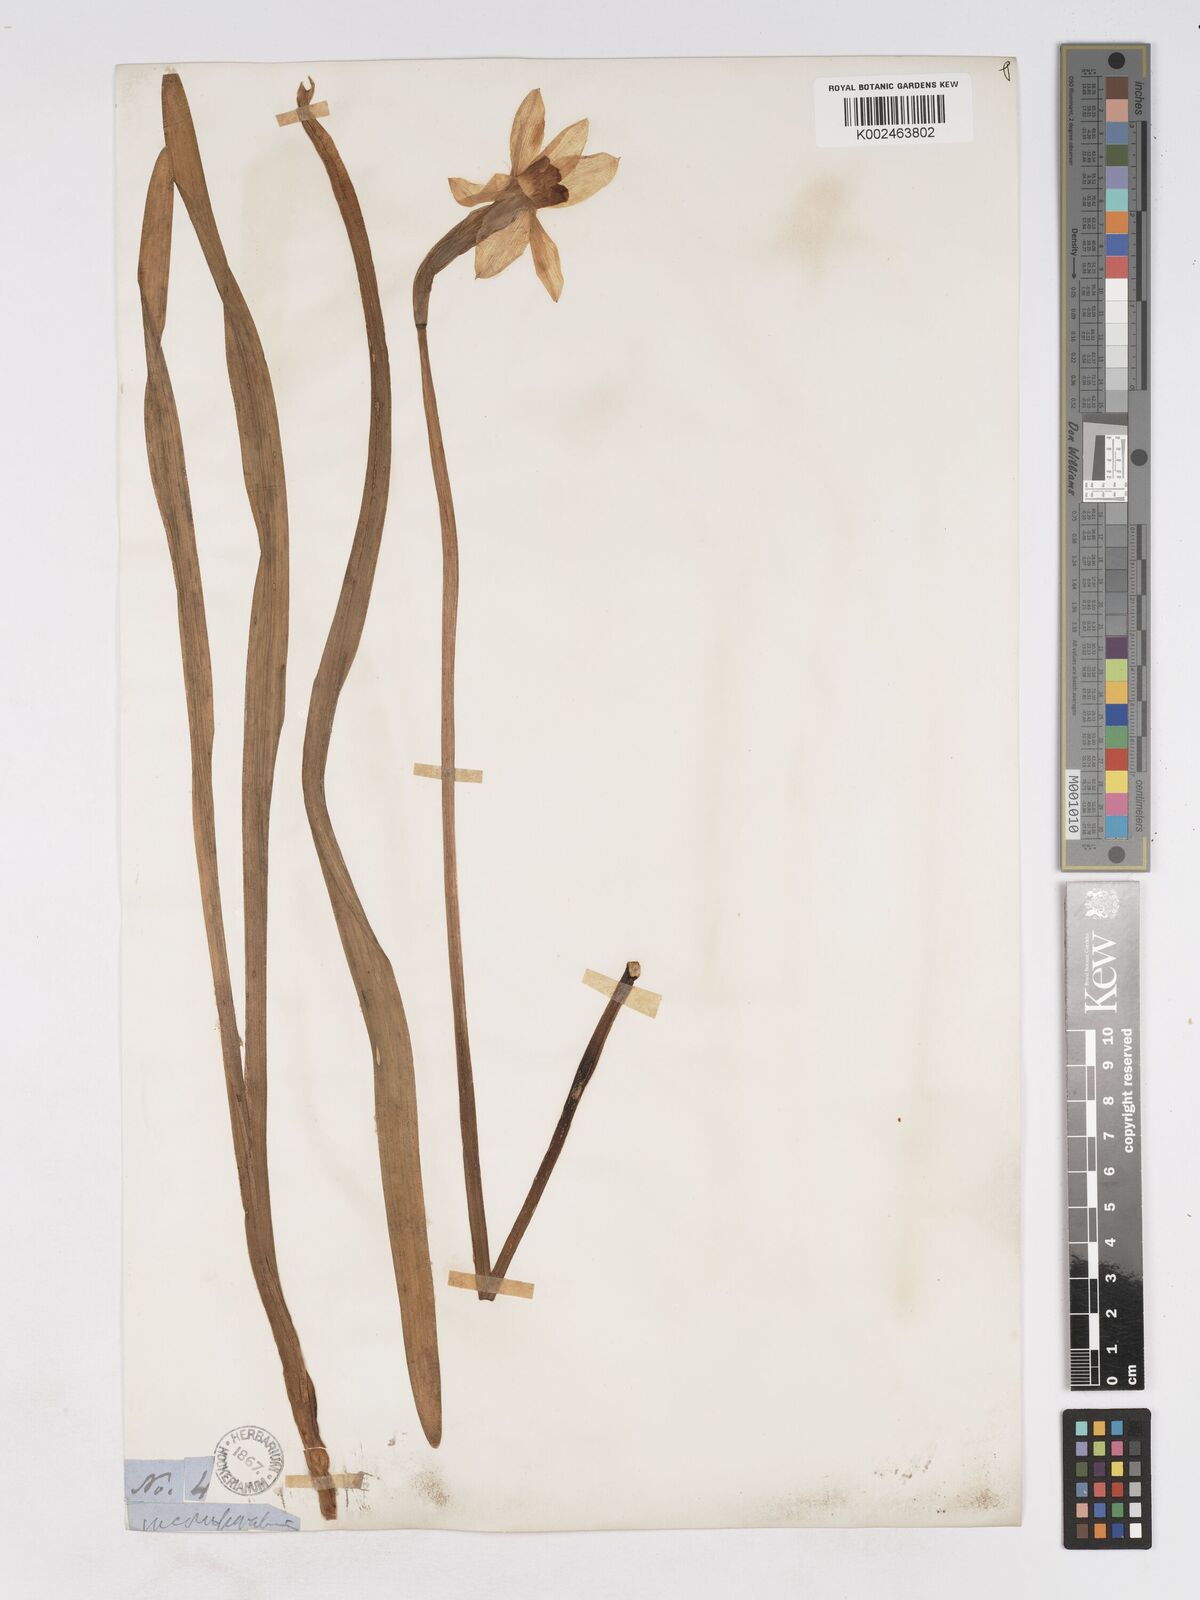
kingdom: Plantae
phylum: Tracheophyta
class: Liliopsida
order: Asparagales
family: Amaryllidaceae
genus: Narcissus
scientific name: Narcissus incomparabilis
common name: Nonesuch daffodil
